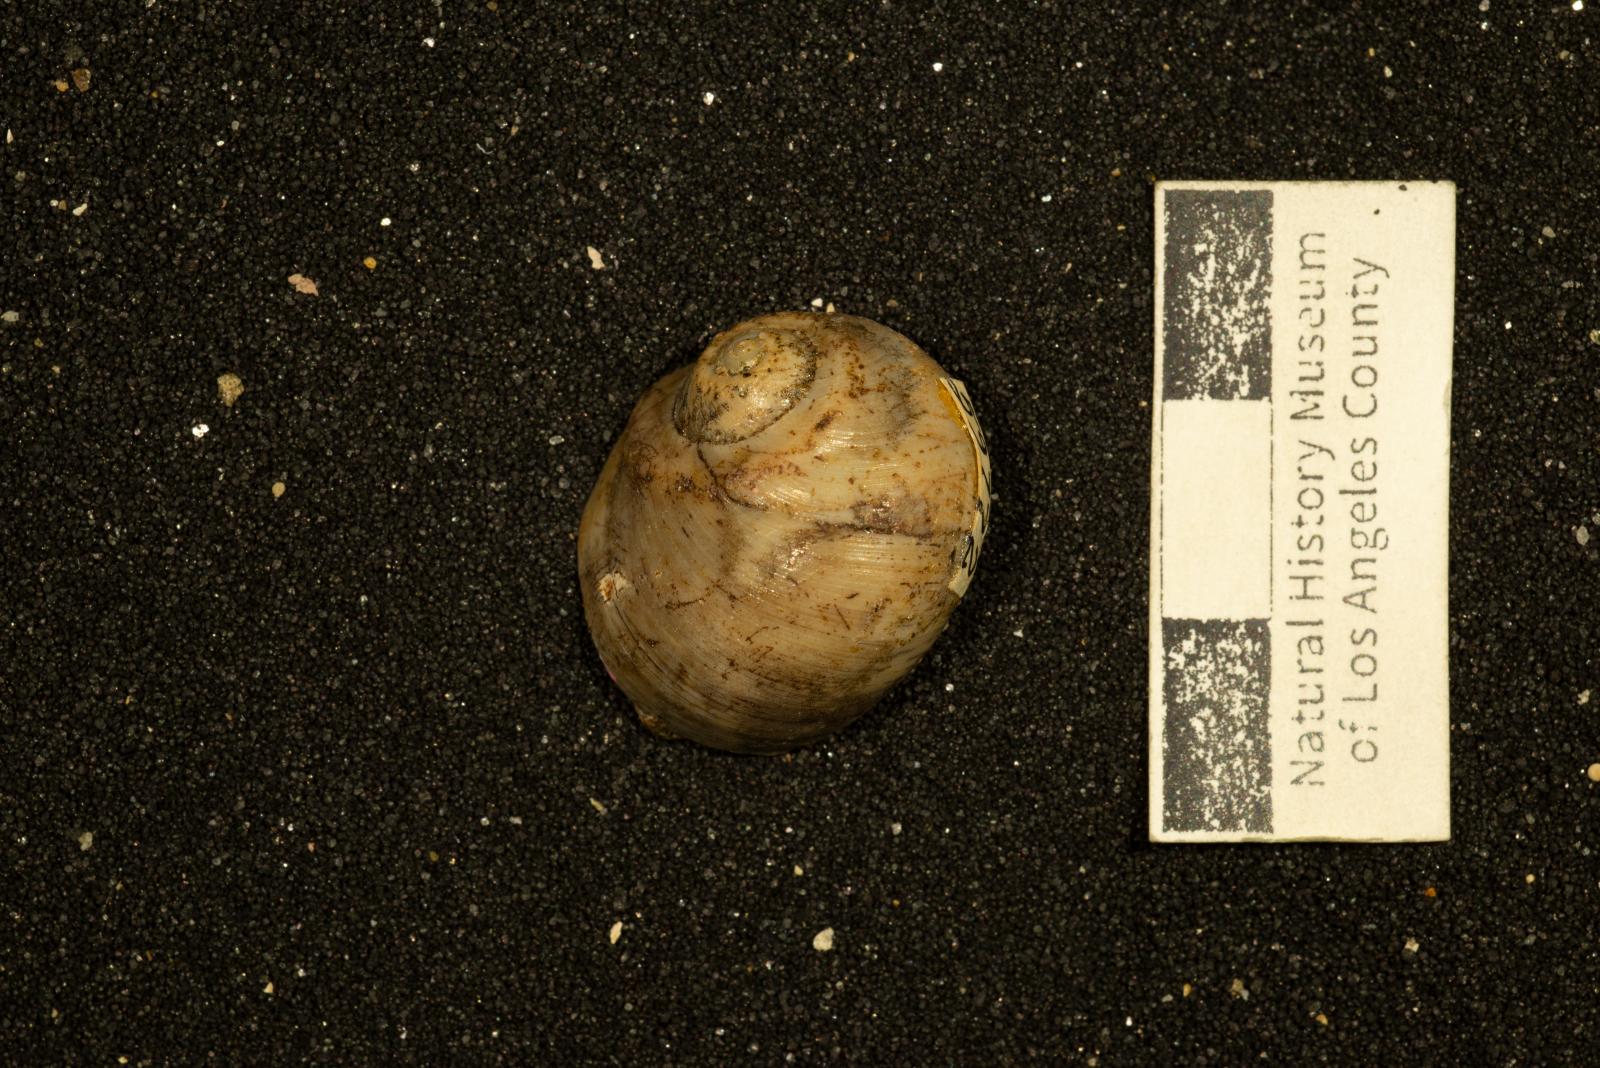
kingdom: Animalia
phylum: Mollusca
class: Gastropoda
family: Gyrodidae
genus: Gyrodes
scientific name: Gyrodes canadensis
